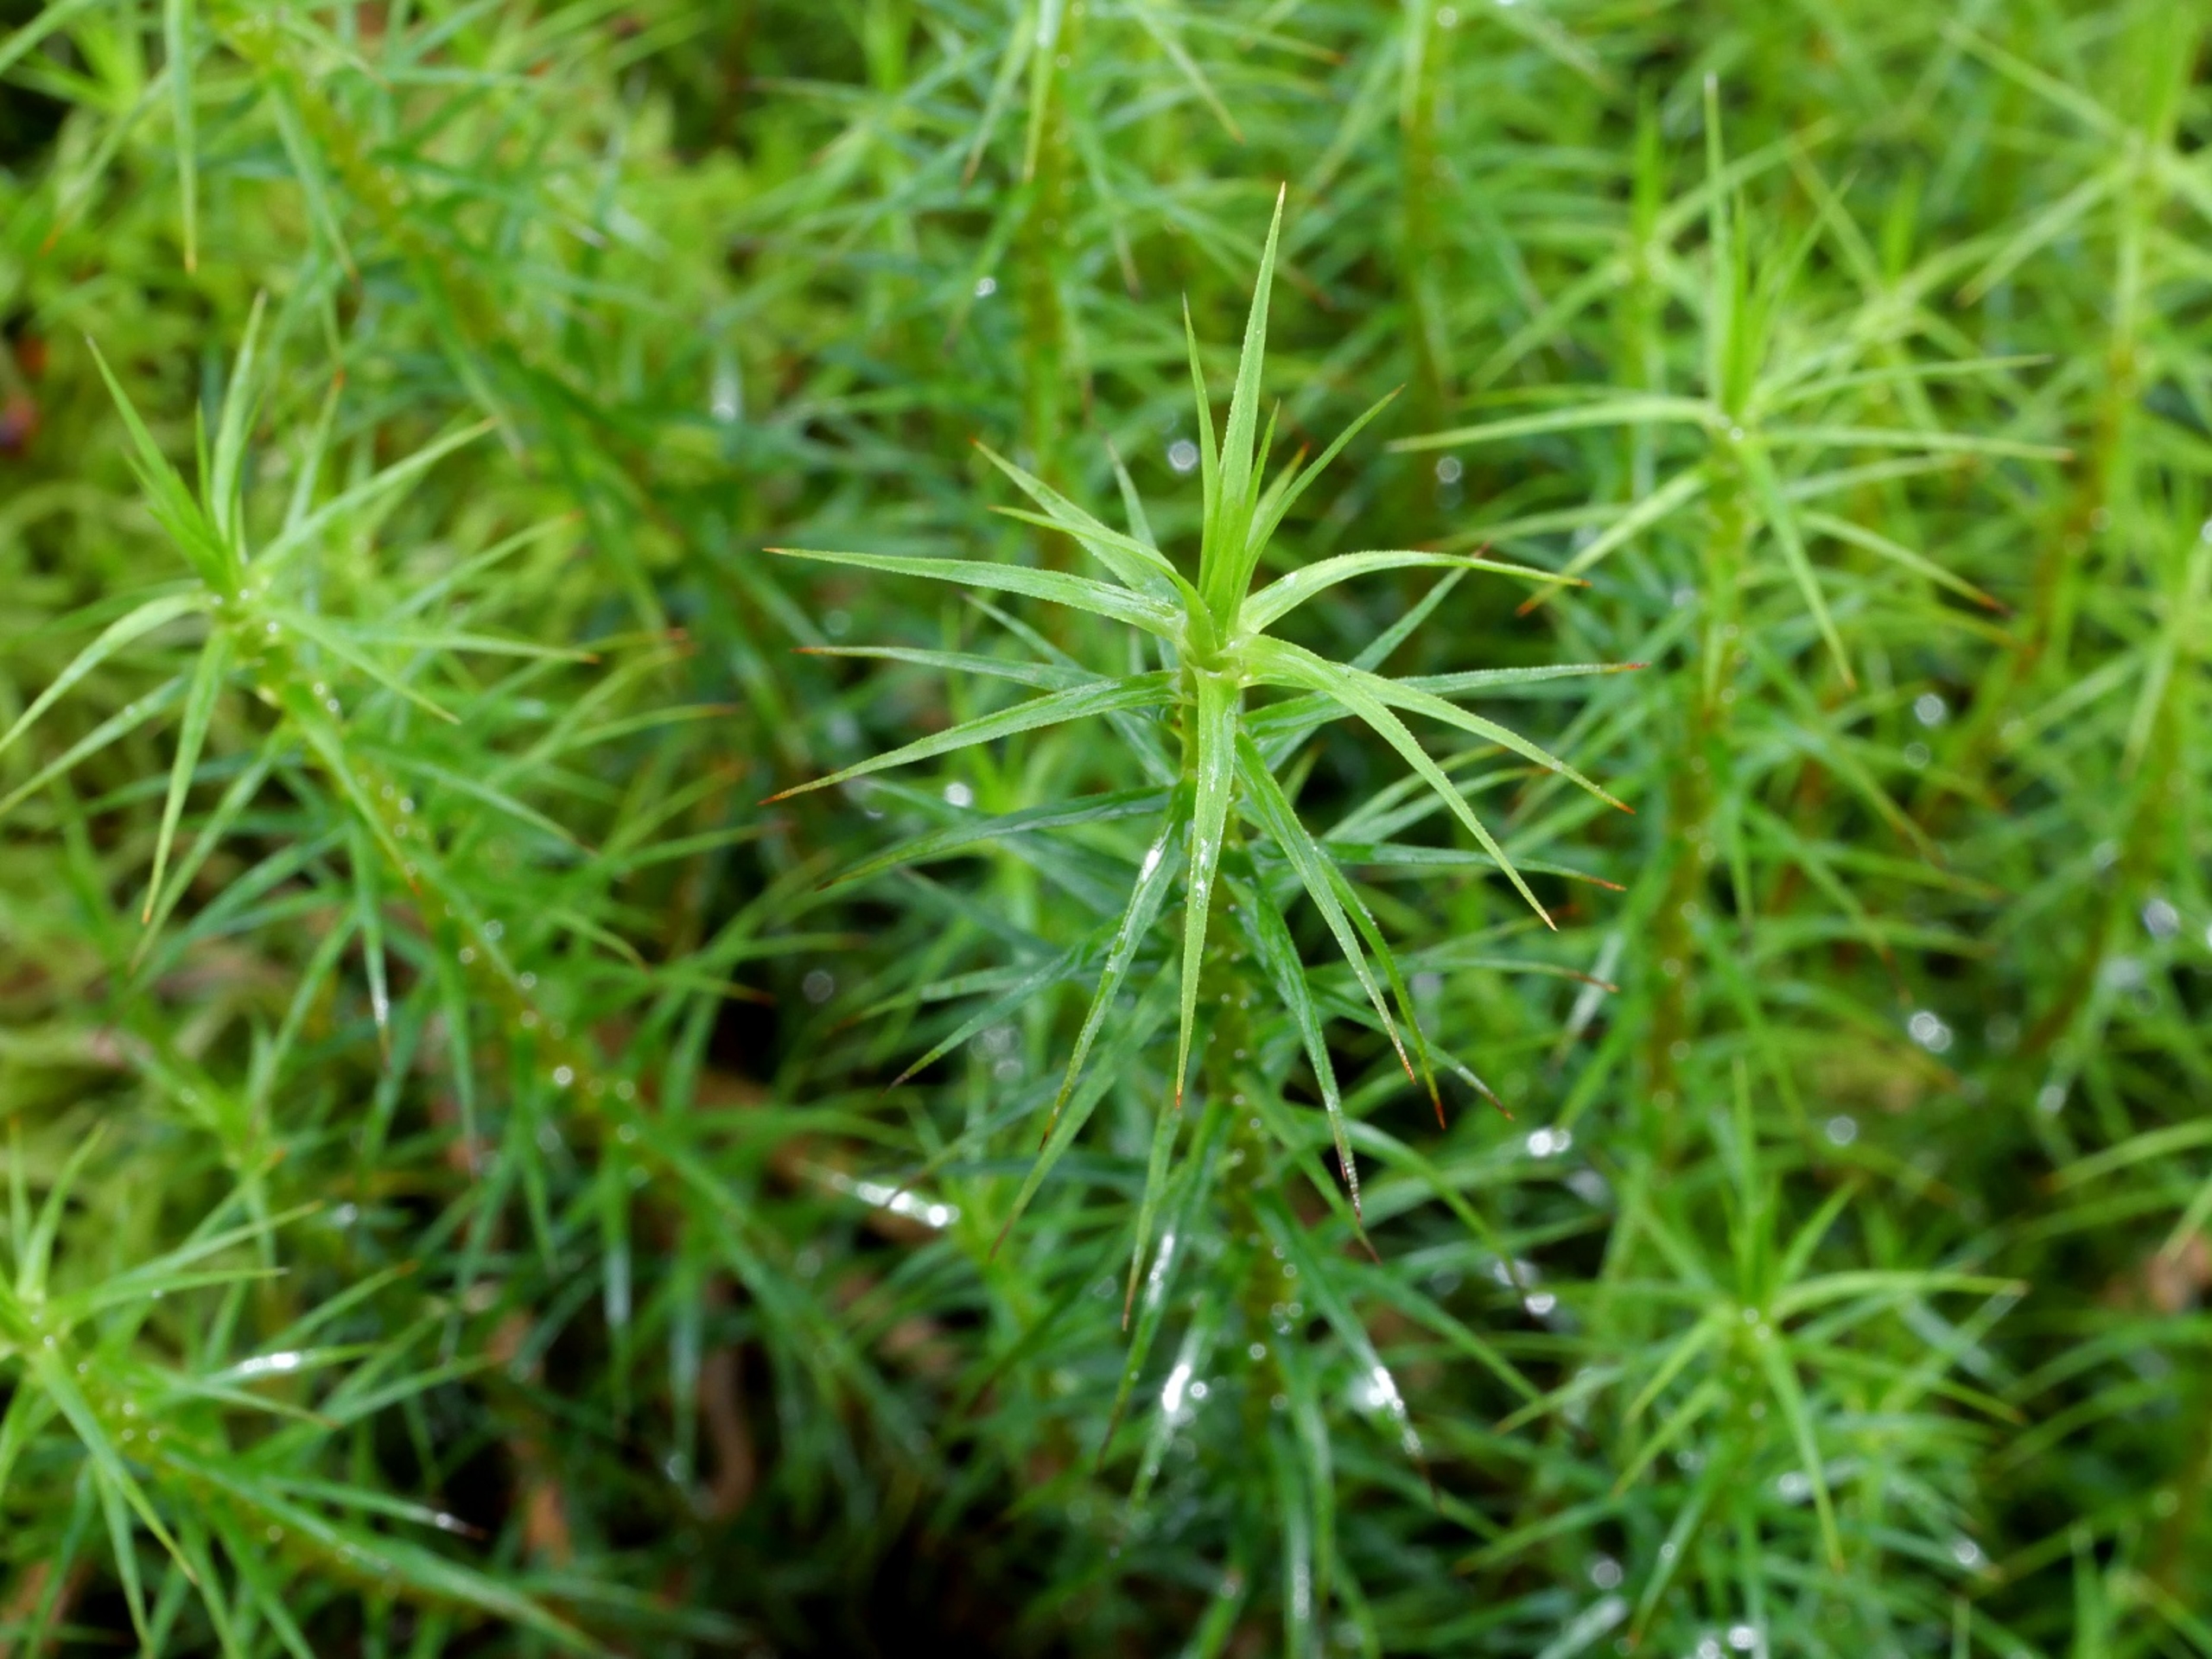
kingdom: Plantae
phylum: Bryophyta
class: Polytrichopsida
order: Polytrichales
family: Polytrichaceae
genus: Polytrichum
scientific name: Polytrichum commune
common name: Almindelig jomfruhår
